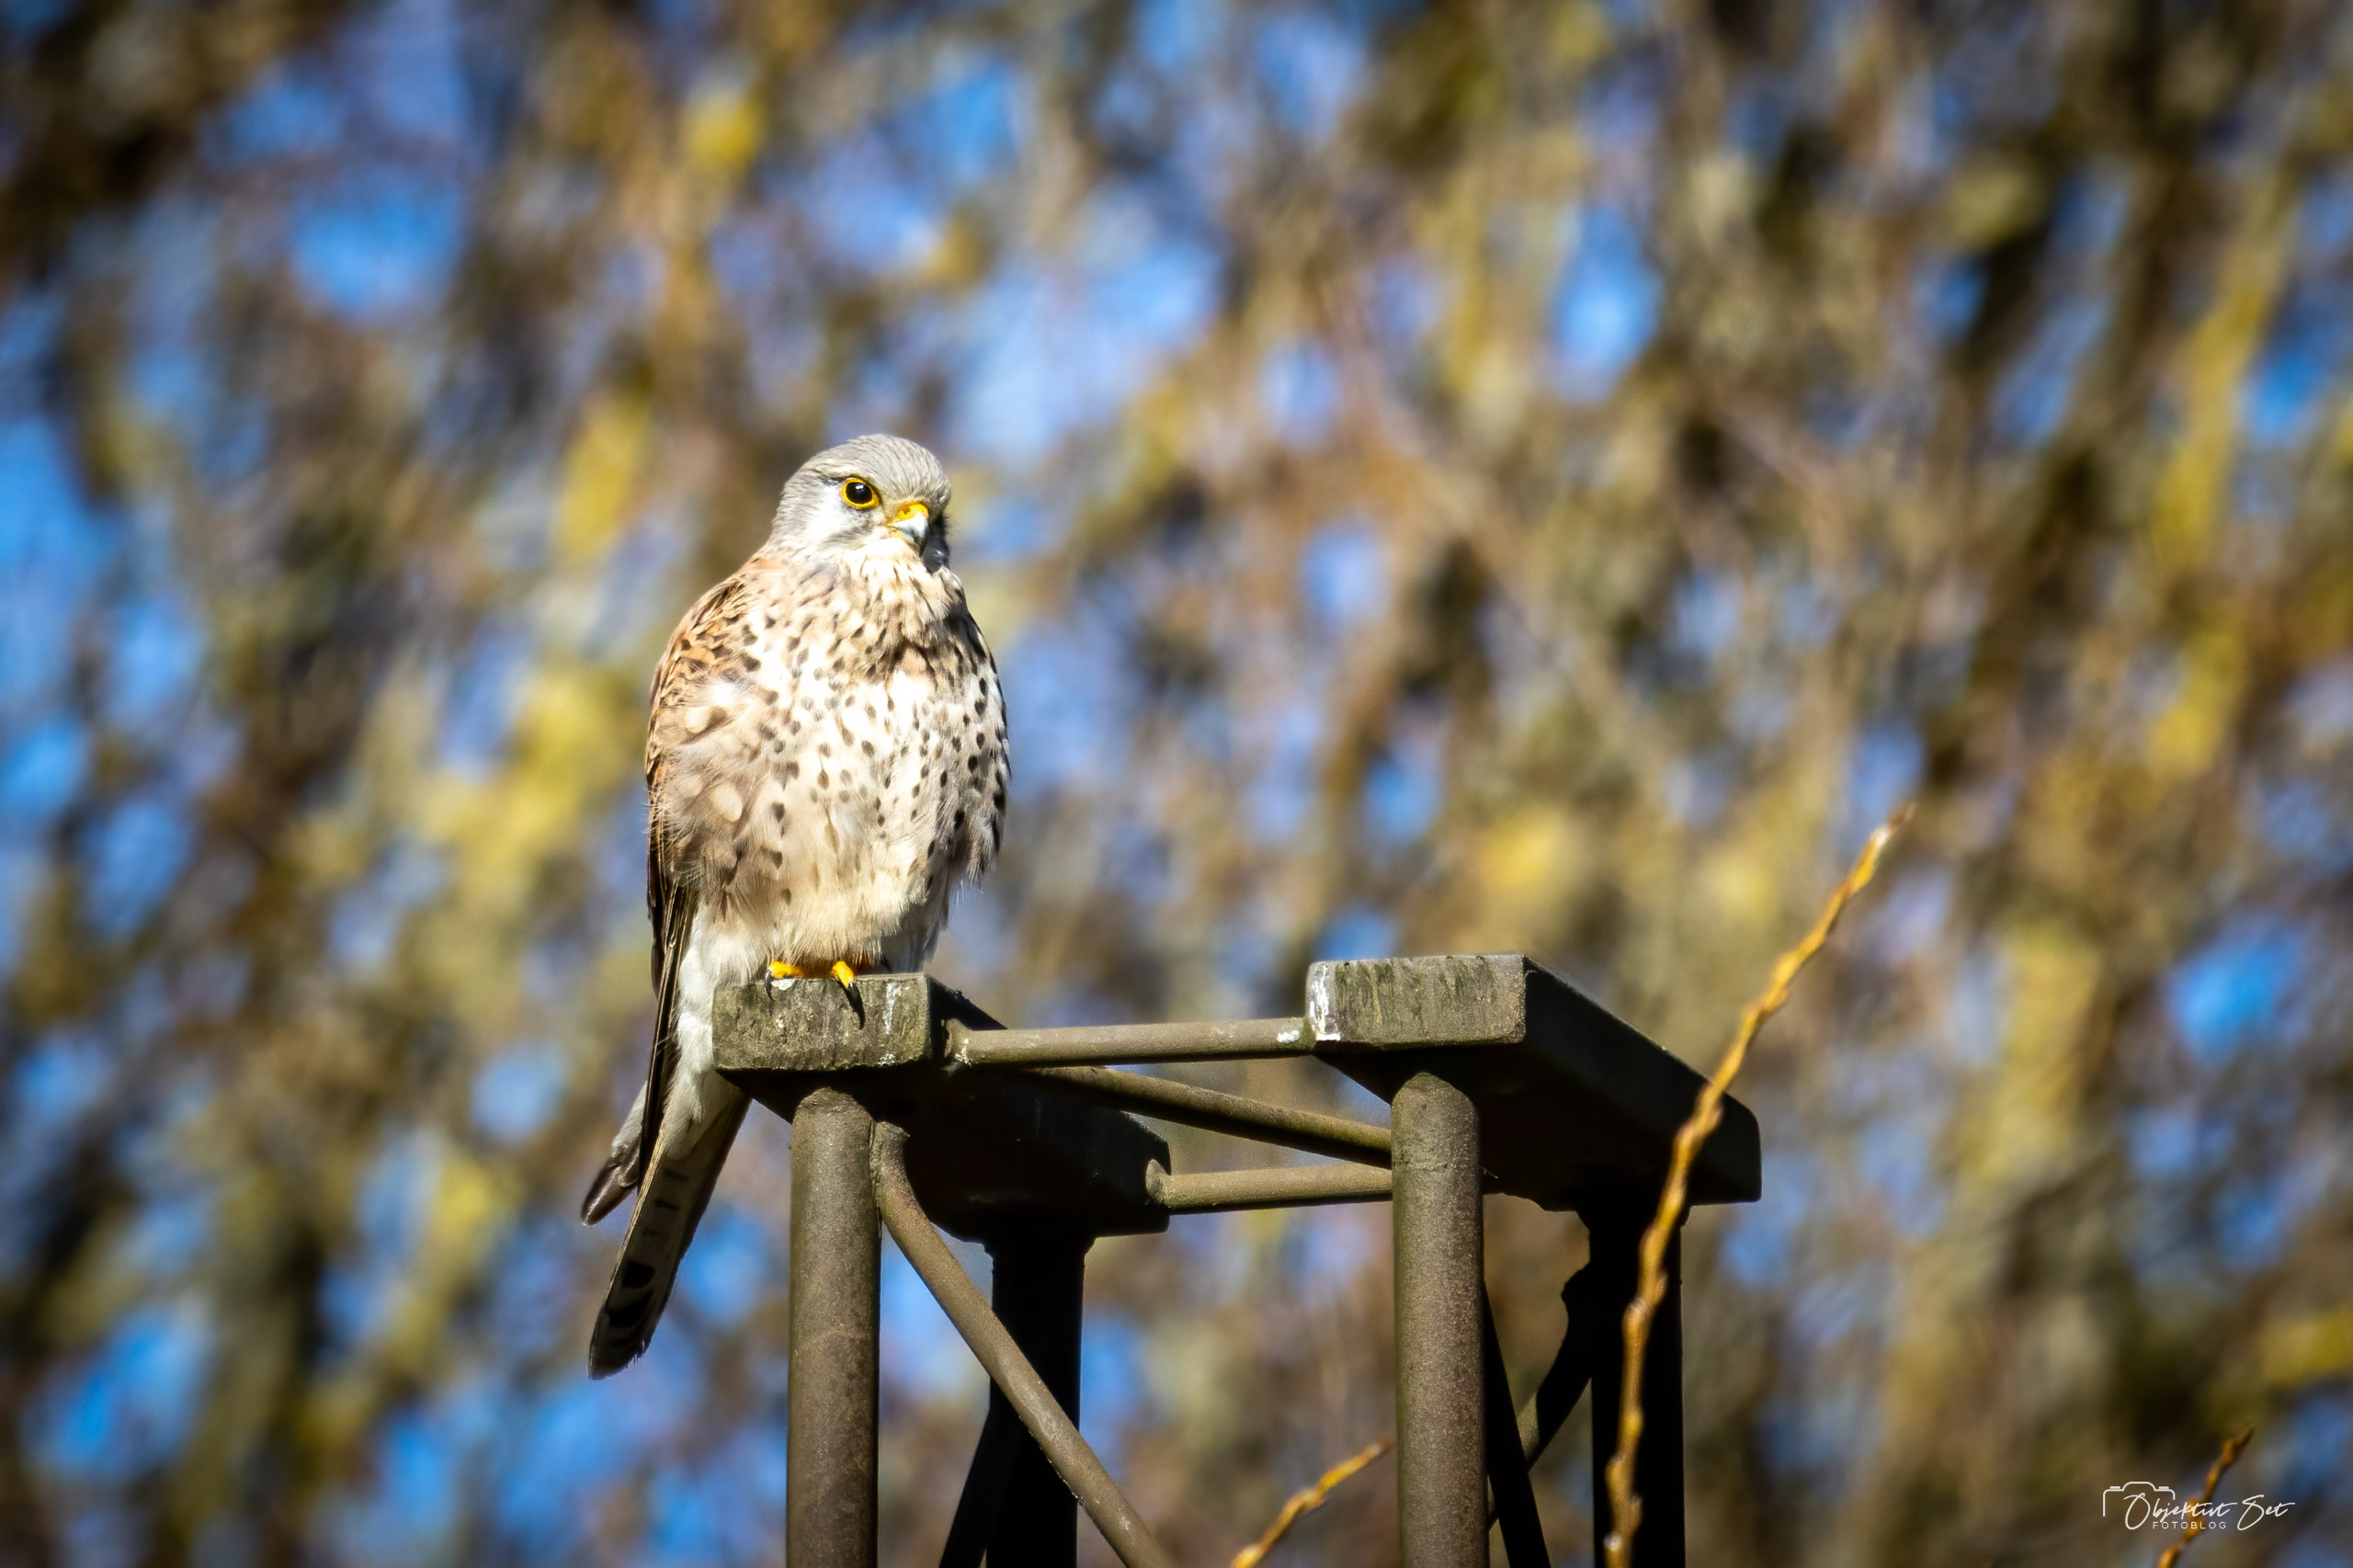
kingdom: Animalia
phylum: Chordata
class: Aves
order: Falconiformes
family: Falconidae
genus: Falco
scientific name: Falco tinnunculus
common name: Tårnfalk
